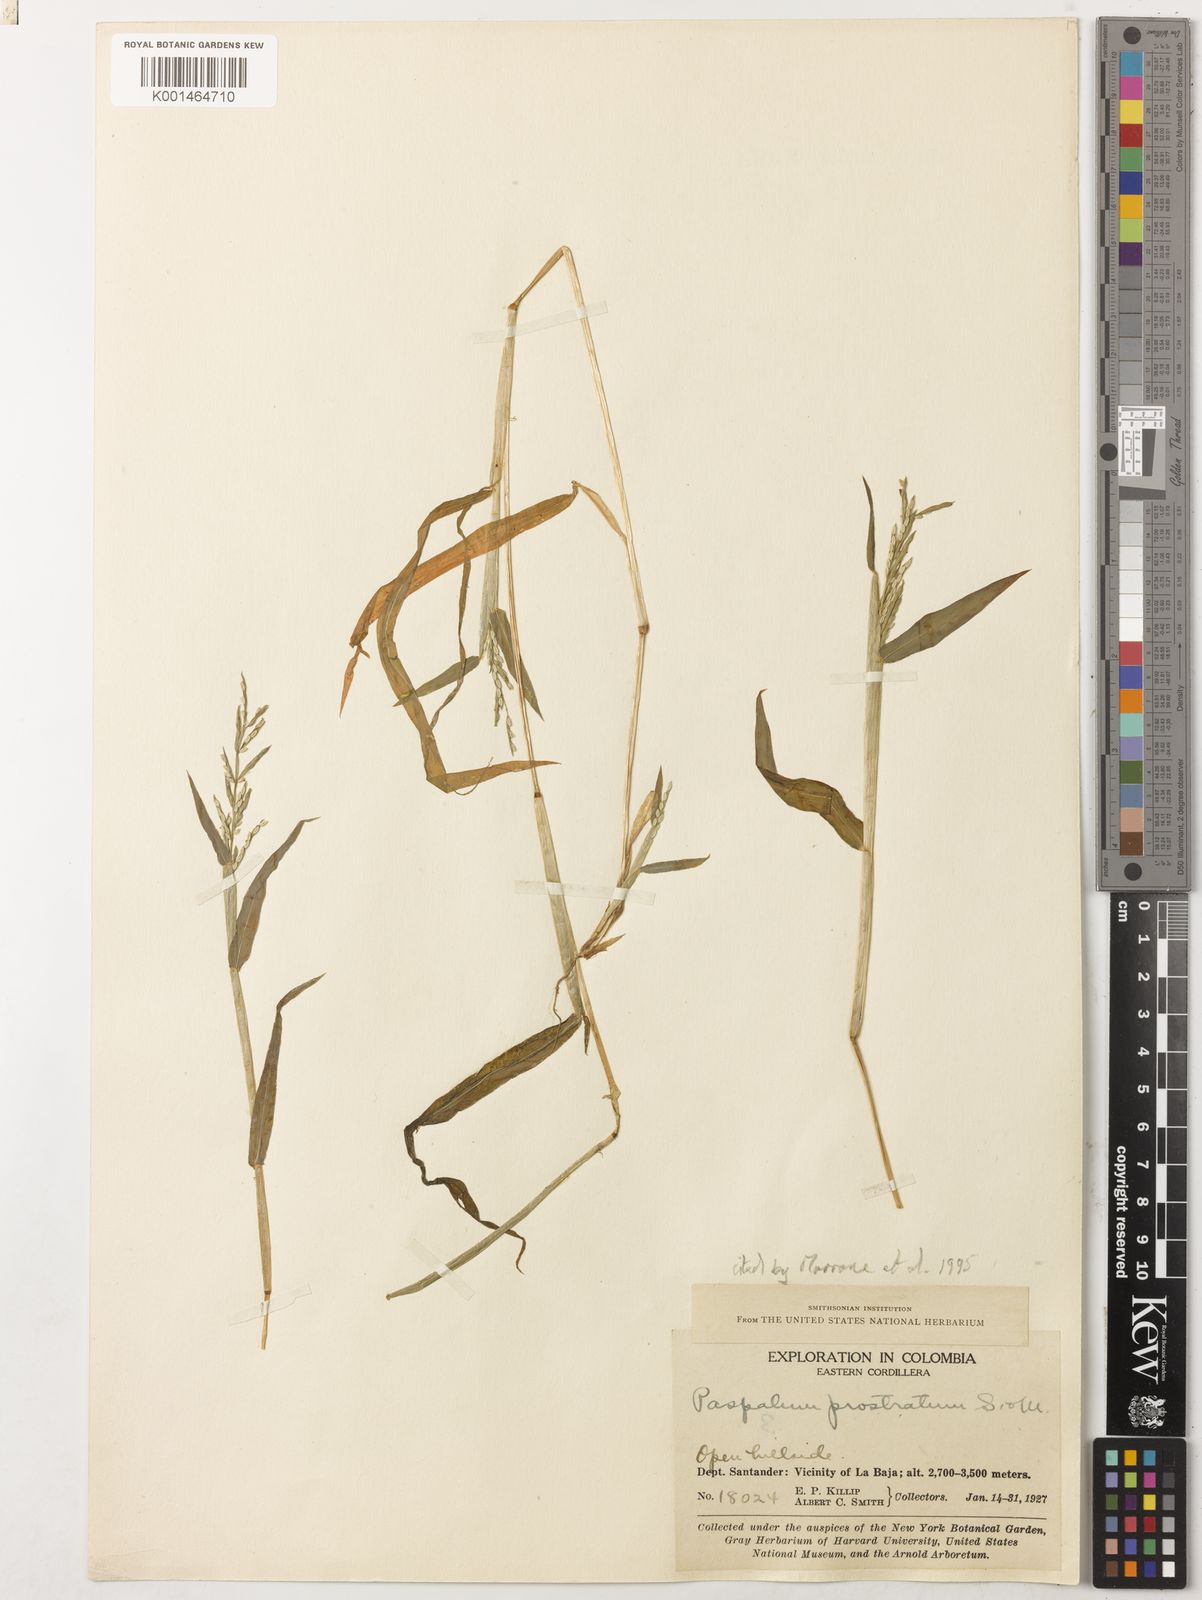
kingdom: Plantae
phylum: Tracheophyta
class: Liliopsida
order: Poales
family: Poaceae
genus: Paspalum
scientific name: Paspalum
